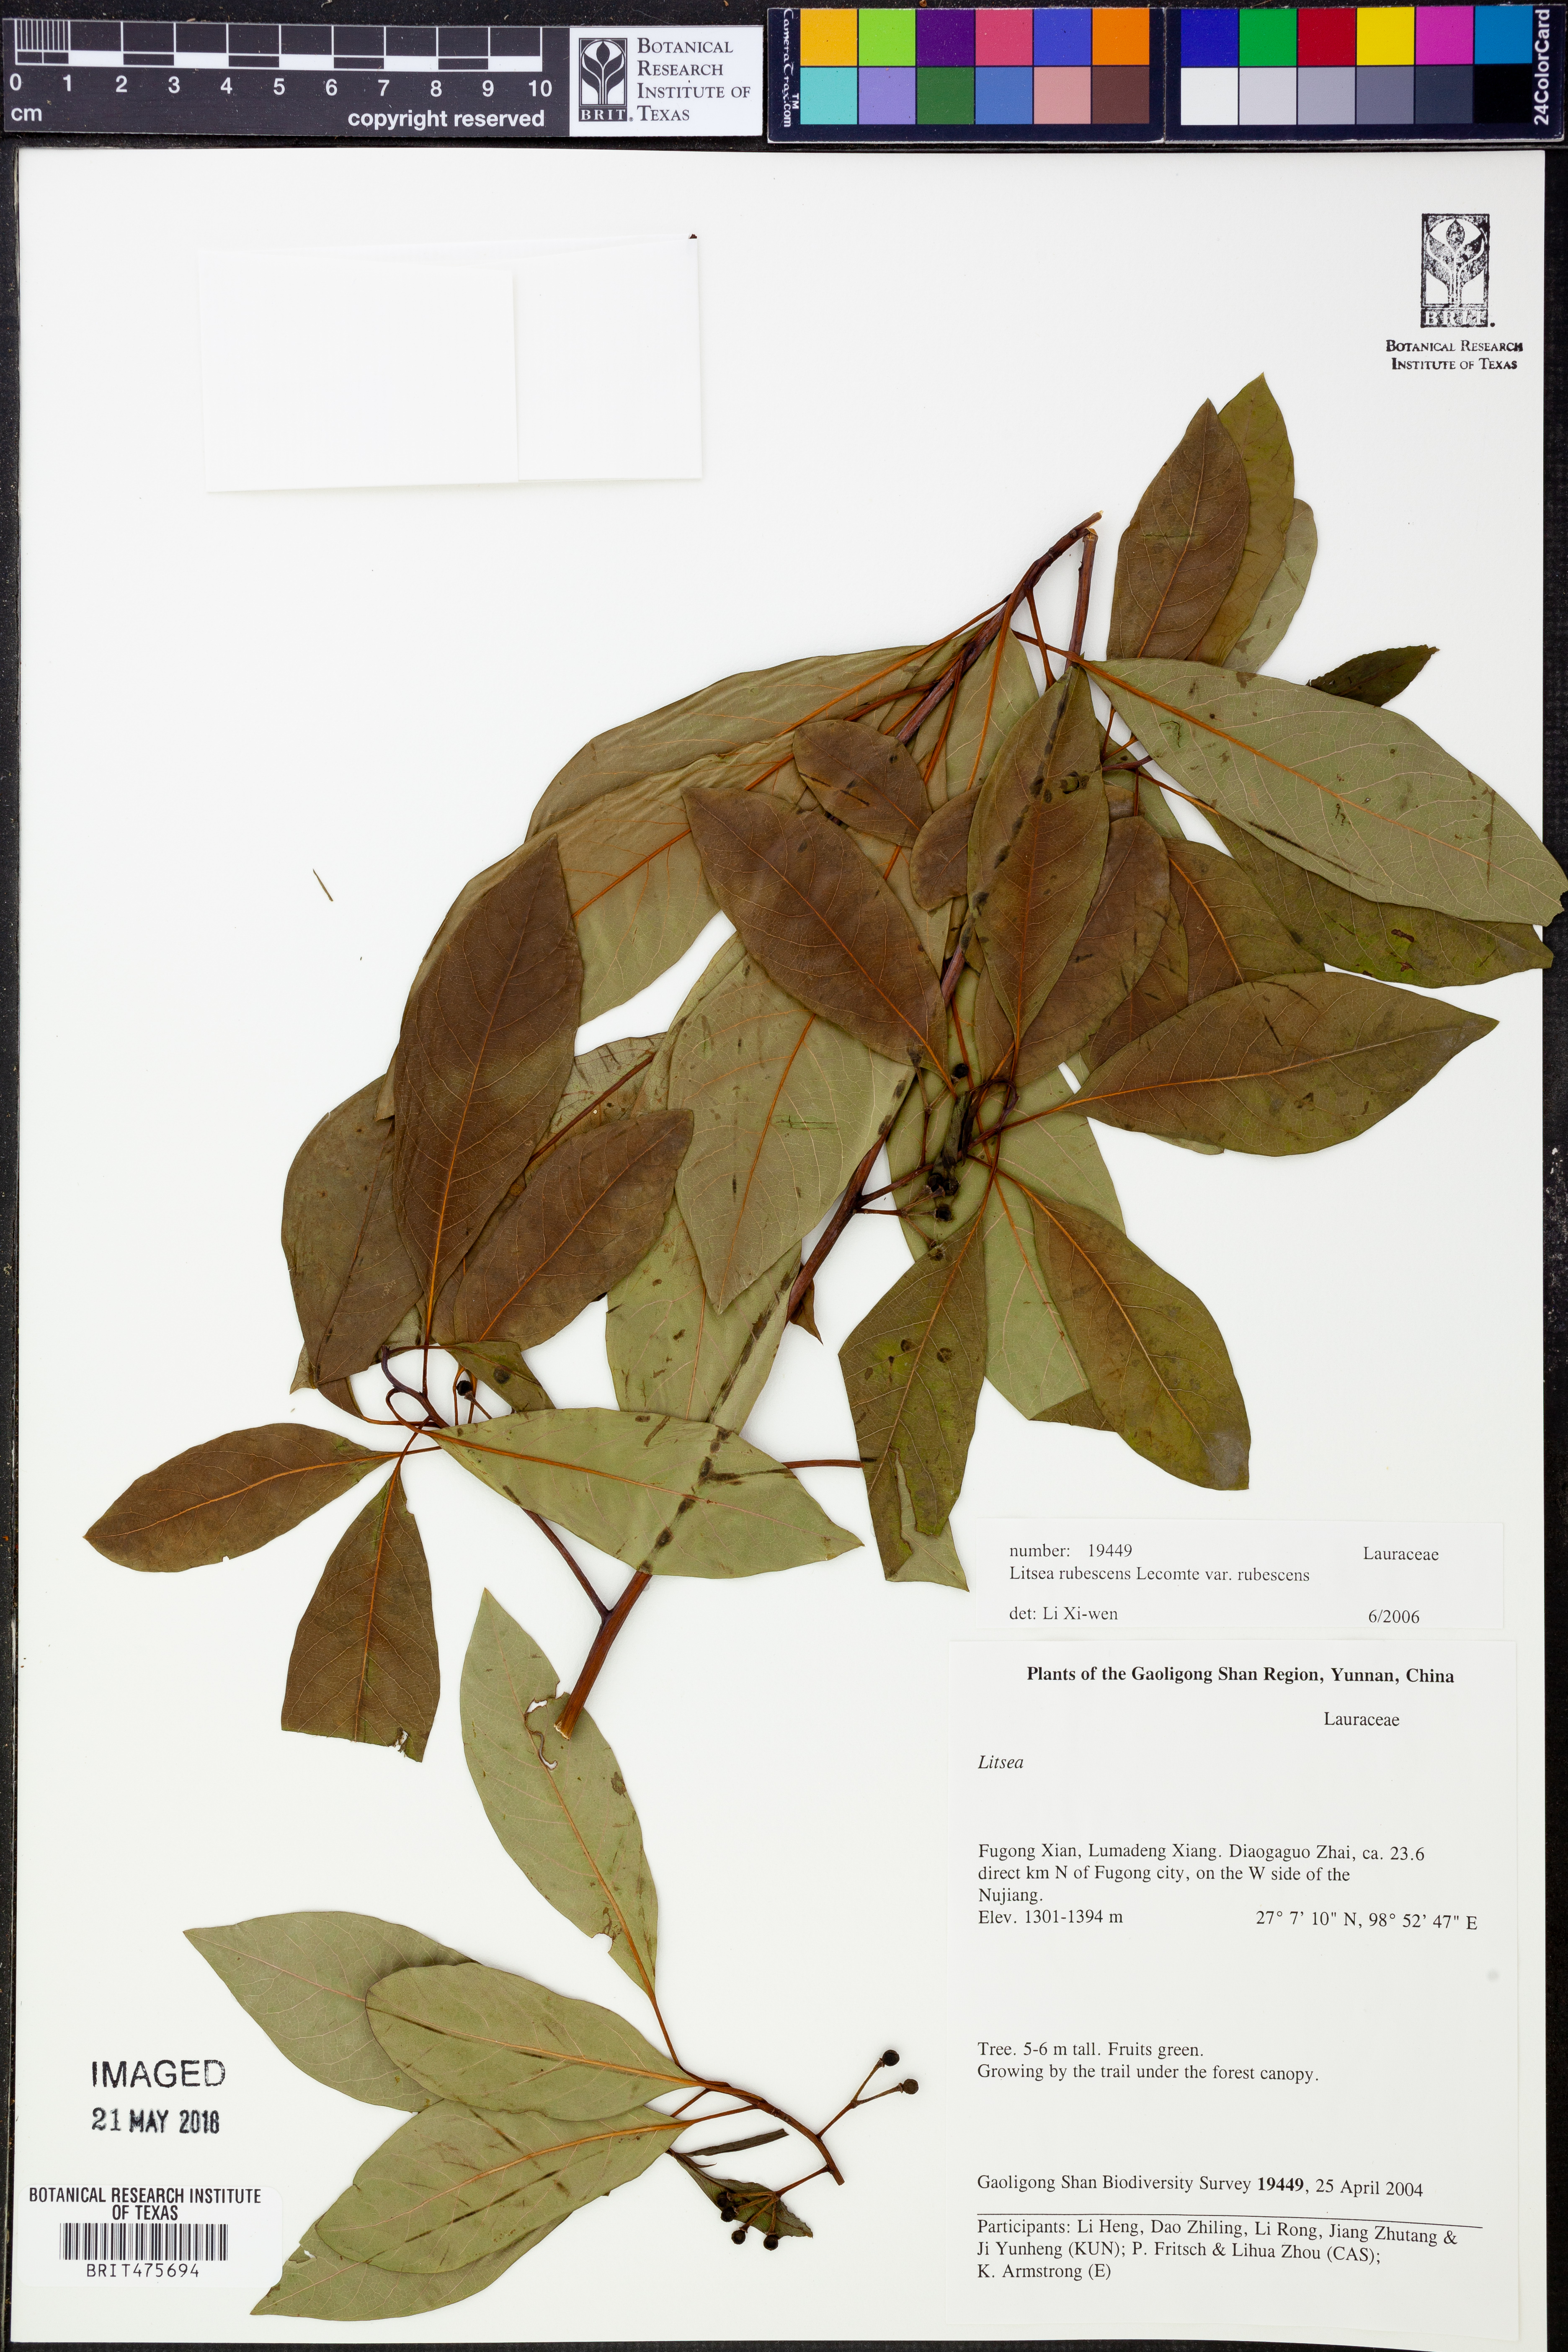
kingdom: Plantae
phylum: Tracheophyta
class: Magnoliopsida
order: Laurales
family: Lauraceae
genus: Litsea
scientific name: Litsea rubescens
